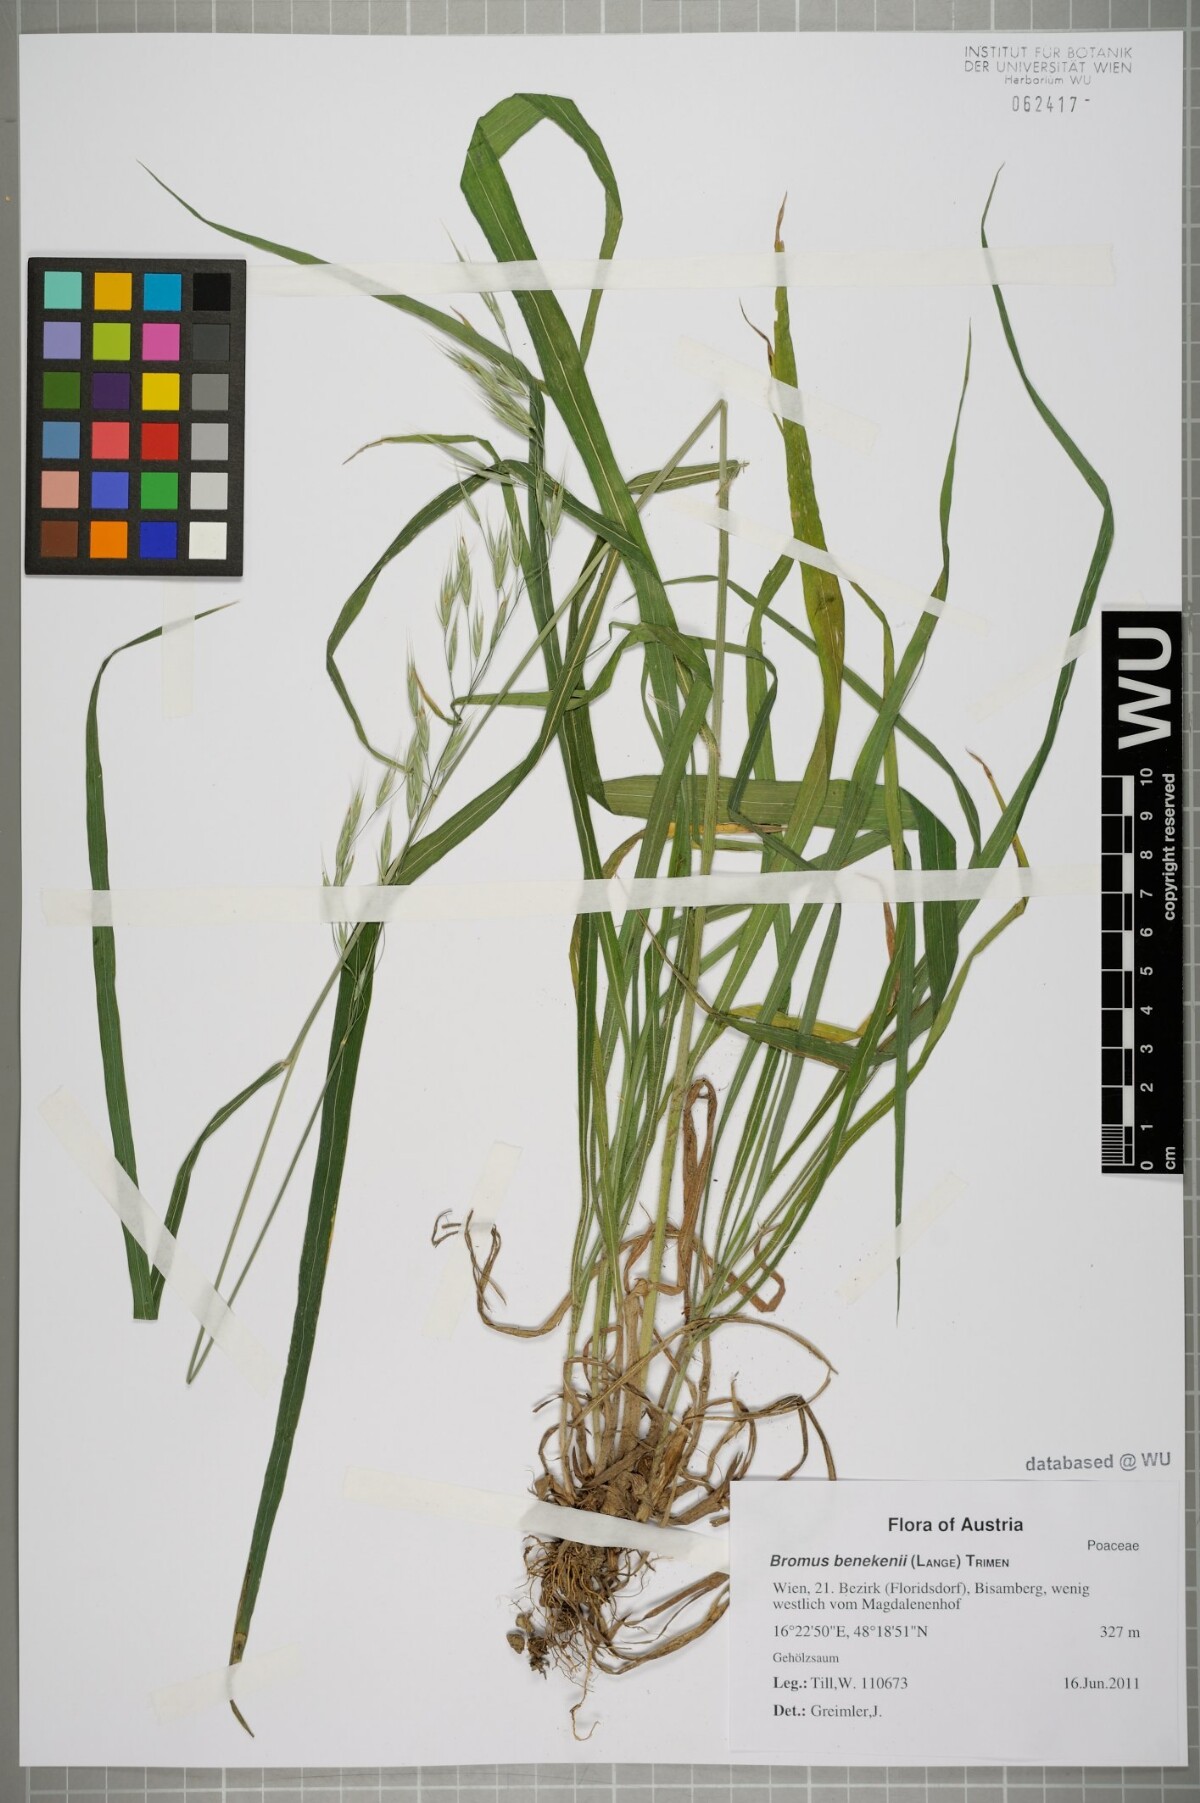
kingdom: Plantae
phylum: Tracheophyta
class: Liliopsida
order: Poales
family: Poaceae
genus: Bromus
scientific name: Bromus benekenii
